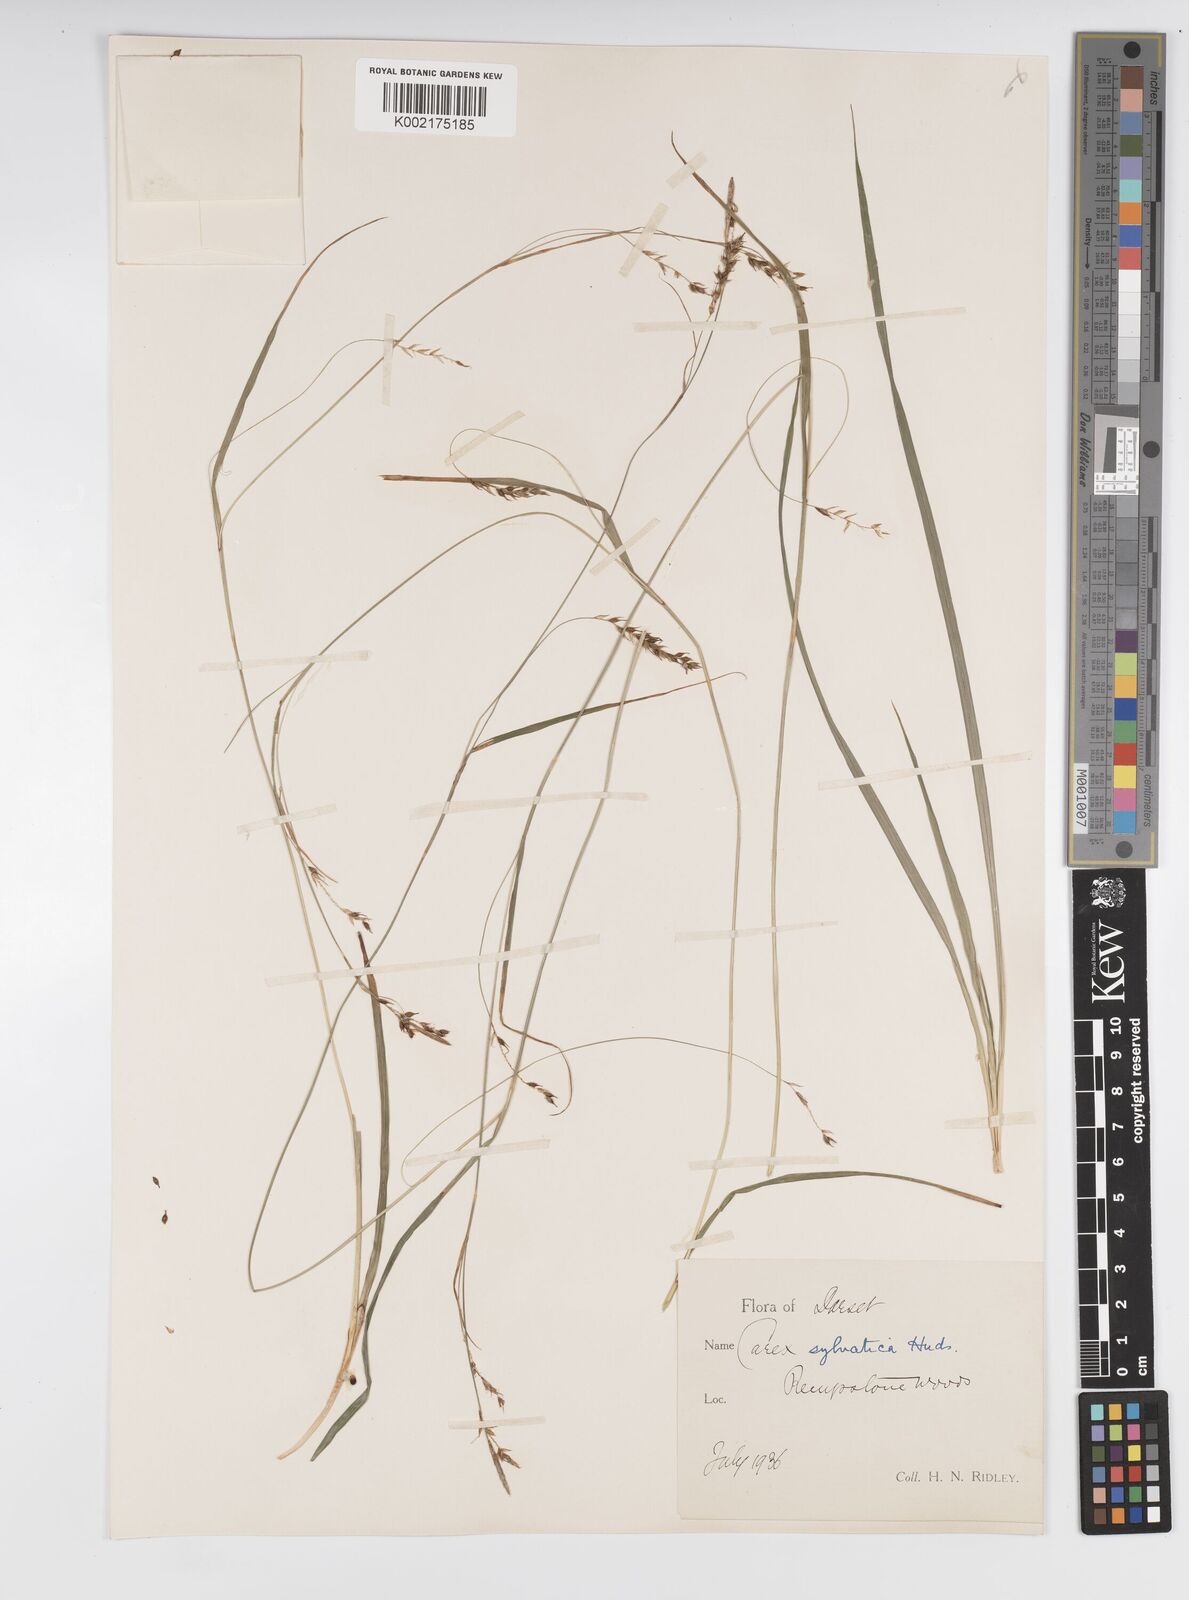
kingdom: Plantae
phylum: Tracheophyta
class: Liliopsida
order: Poales
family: Cyperaceae
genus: Carex
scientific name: Carex sylvatica
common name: Wood-sedge
